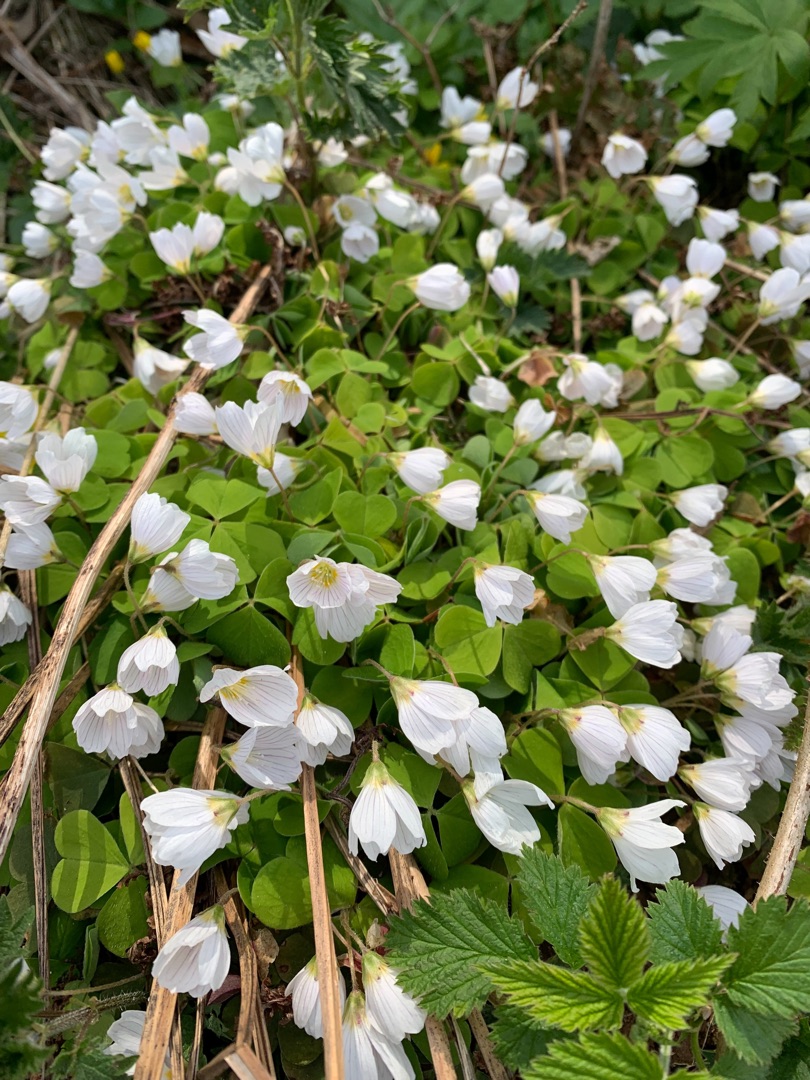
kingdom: Plantae
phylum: Tracheophyta
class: Magnoliopsida
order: Oxalidales
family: Oxalidaceae
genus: Oxalis
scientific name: Oxalis acetosella
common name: Skovsyre
